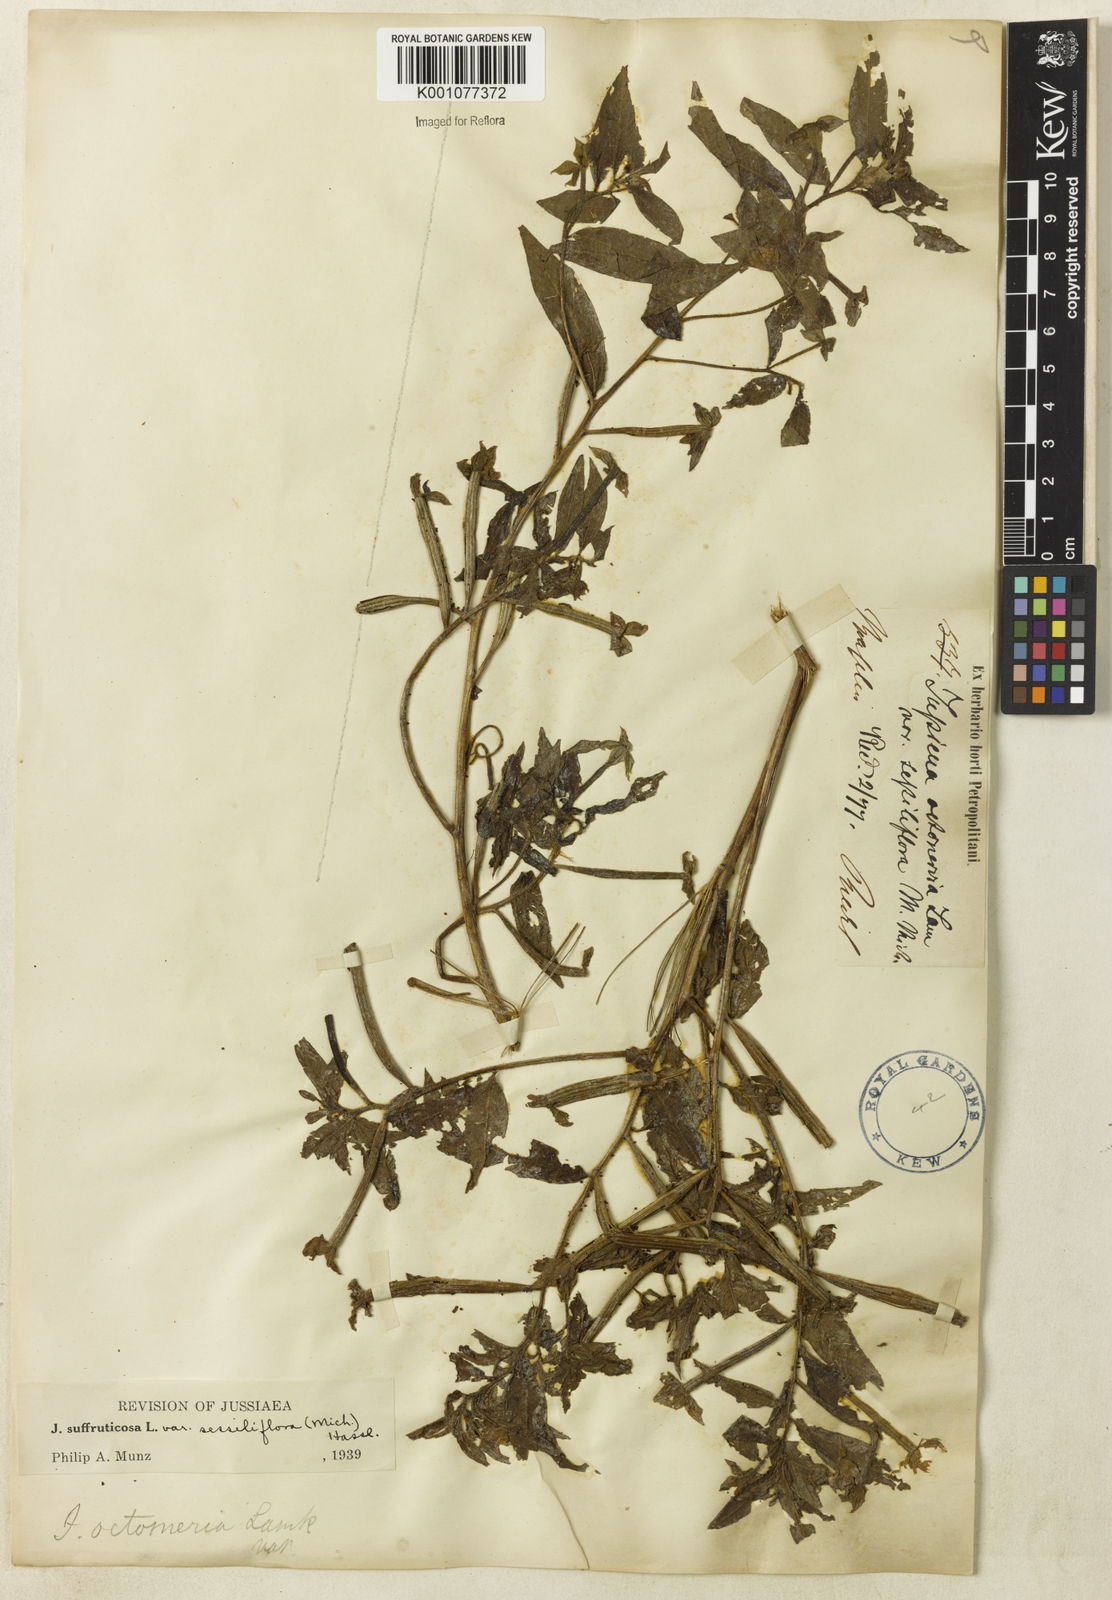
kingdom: Plantae
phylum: Tracheophyta
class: Magnoliopsida
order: Myrtales
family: Onagraceae
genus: Ludwigia
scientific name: Ludwigia octovalvis
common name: Water-primrose
